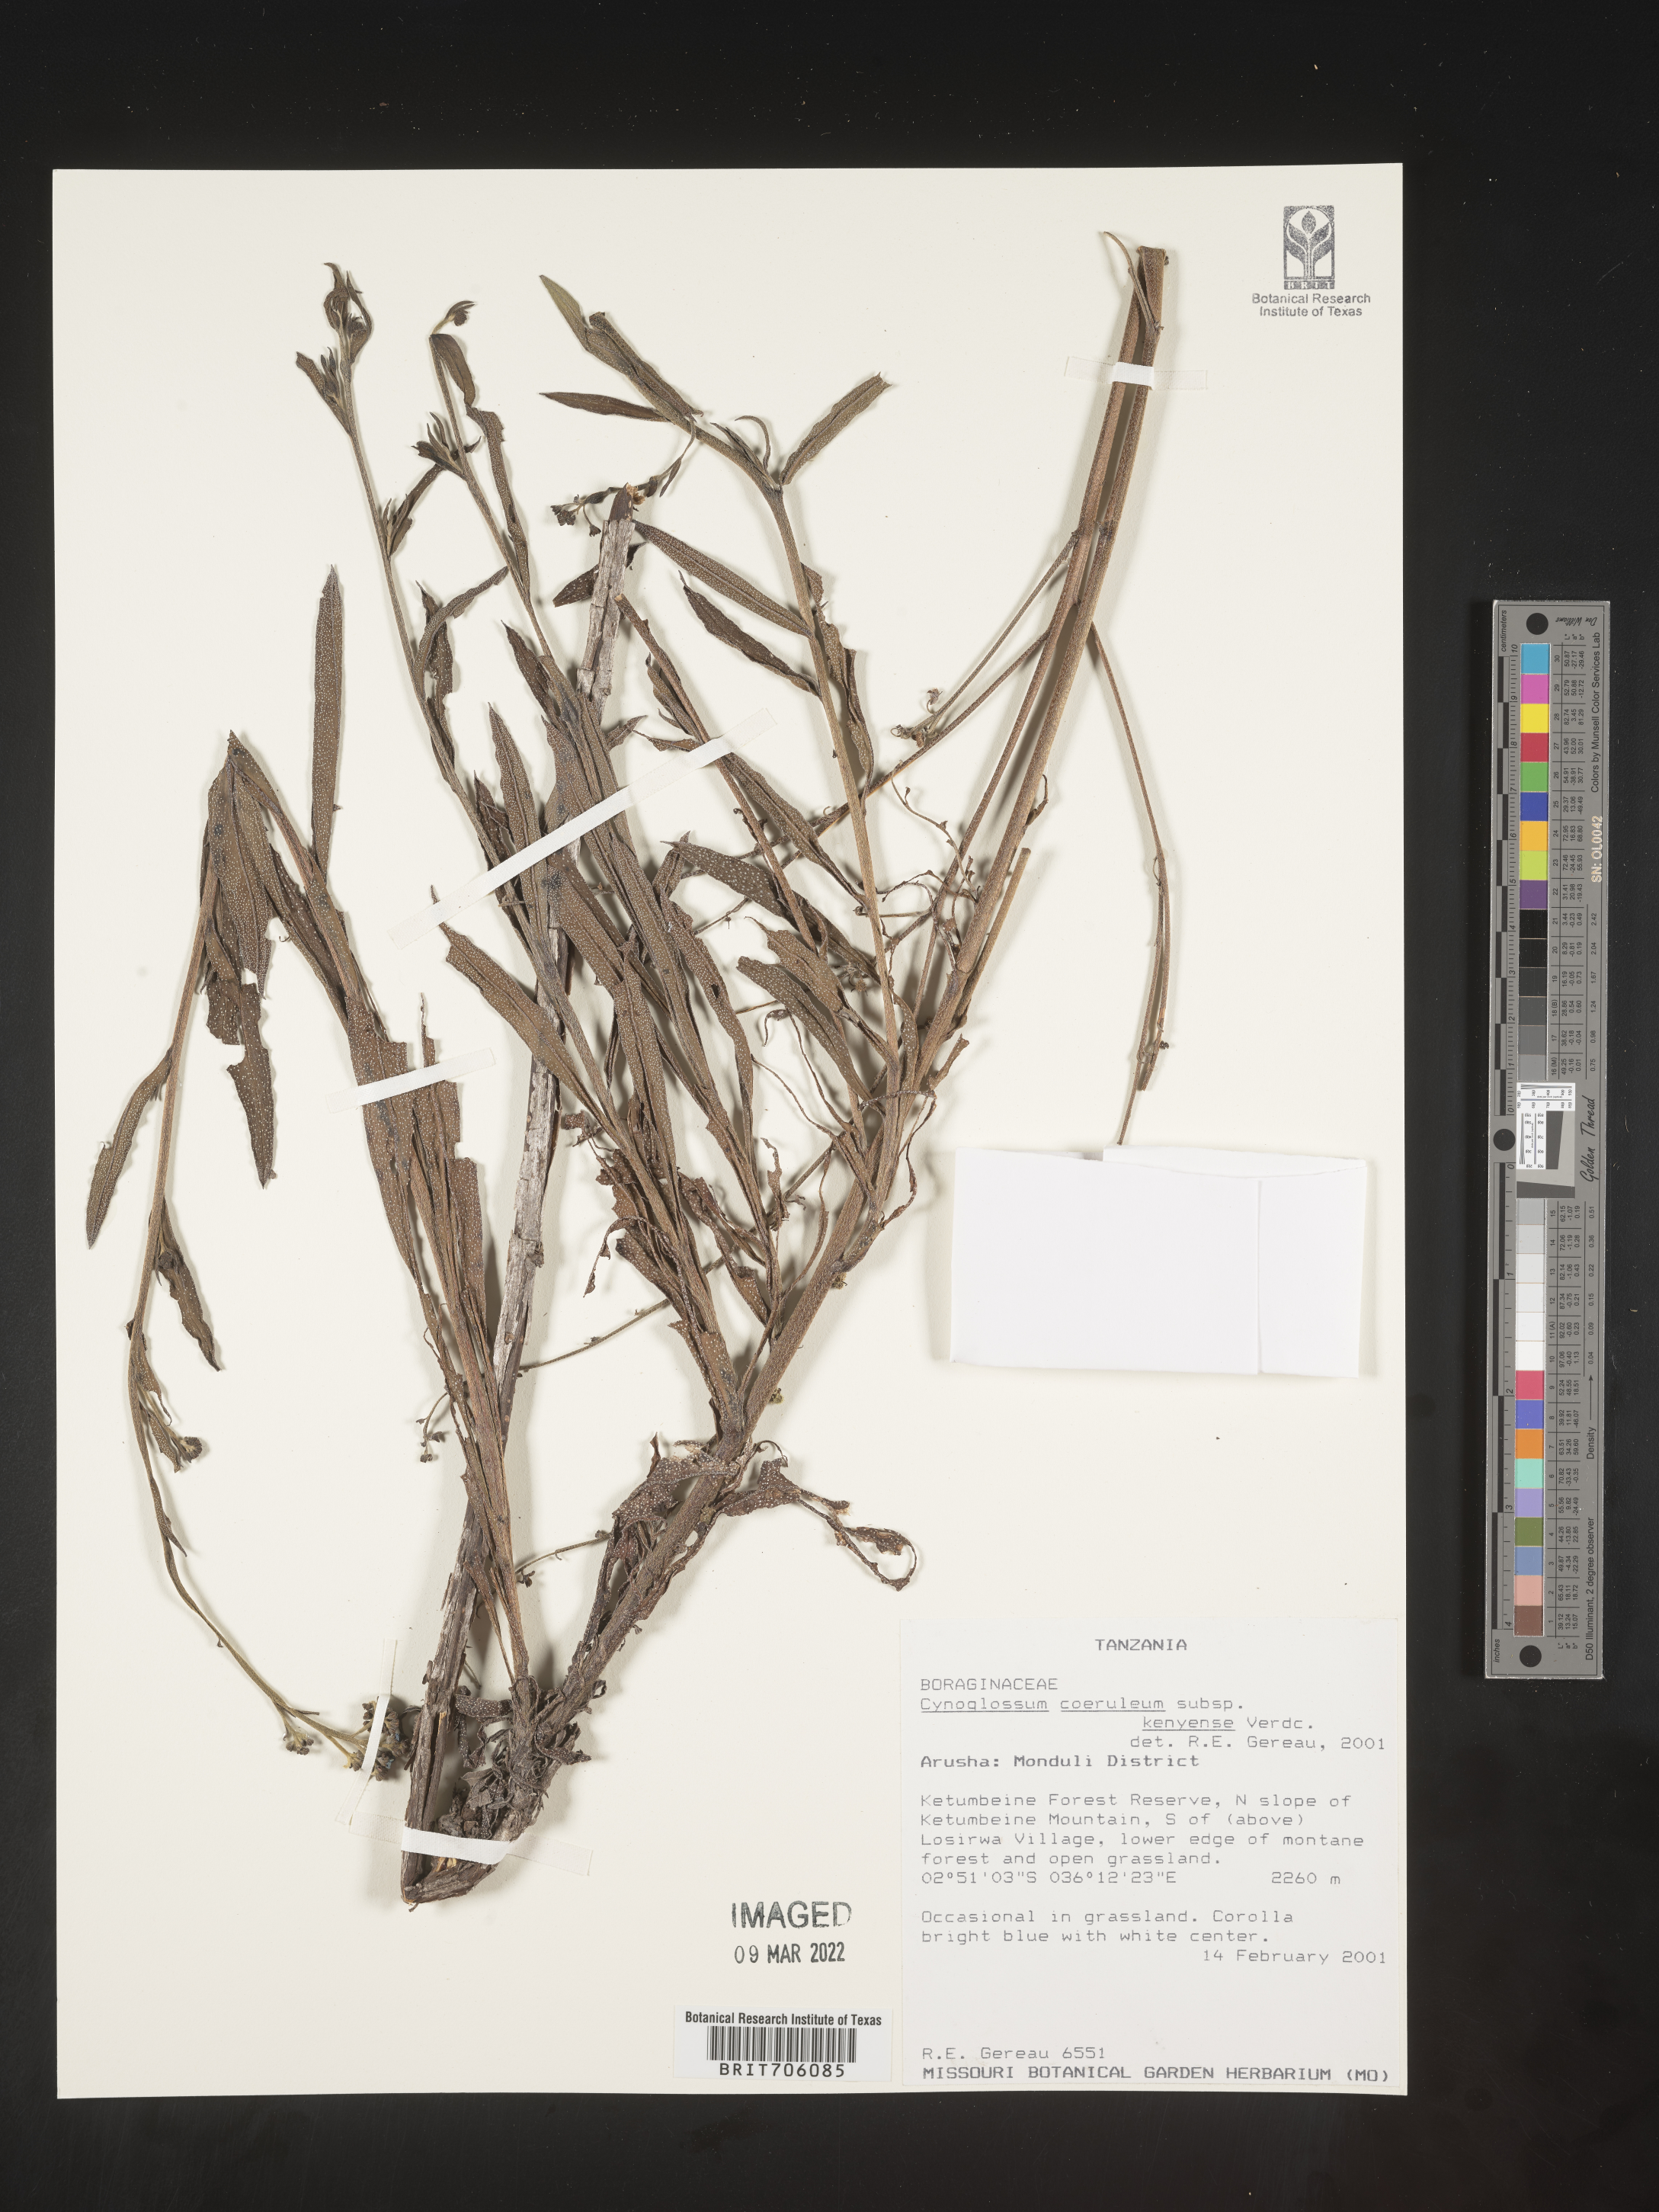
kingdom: Plantae
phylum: Tracheophyta
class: Magnoliopsida
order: Boraginales
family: Boraginaceae
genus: Cynoglossum
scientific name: Cynoglossum
